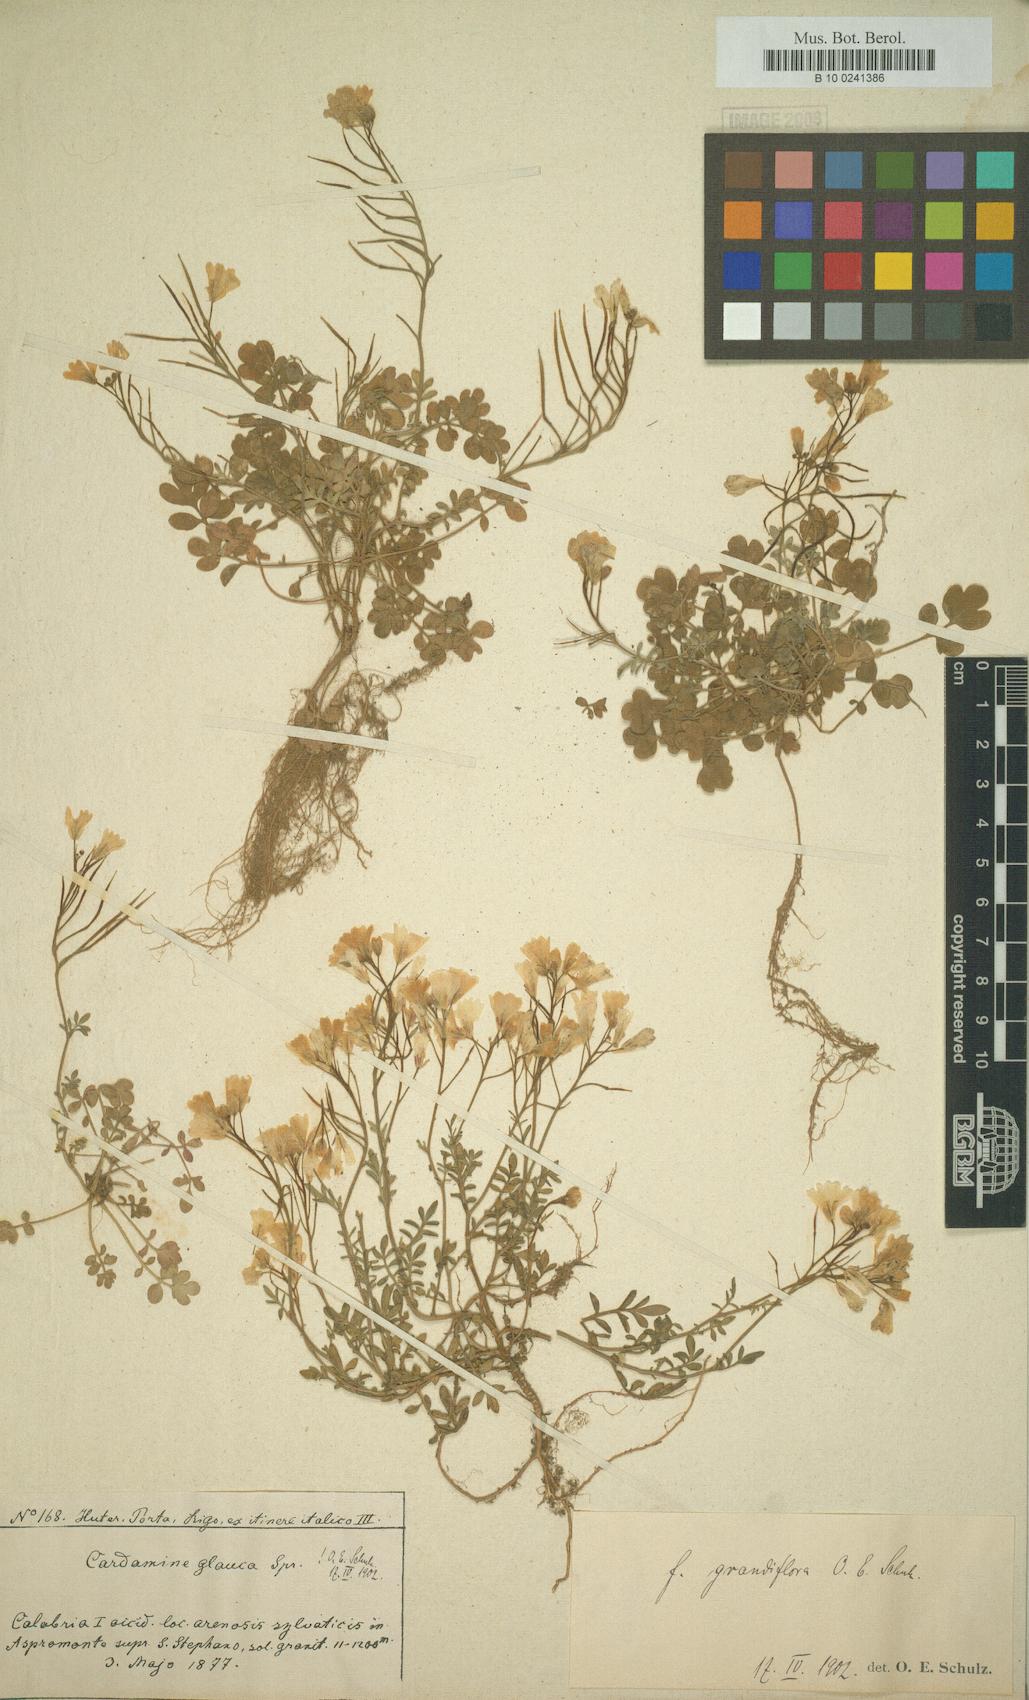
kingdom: Plantae
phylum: Tracheophyta
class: Magnoliopsida
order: Brassicales
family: Brassicaceae
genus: Cardamine
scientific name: Cardamine glauca
